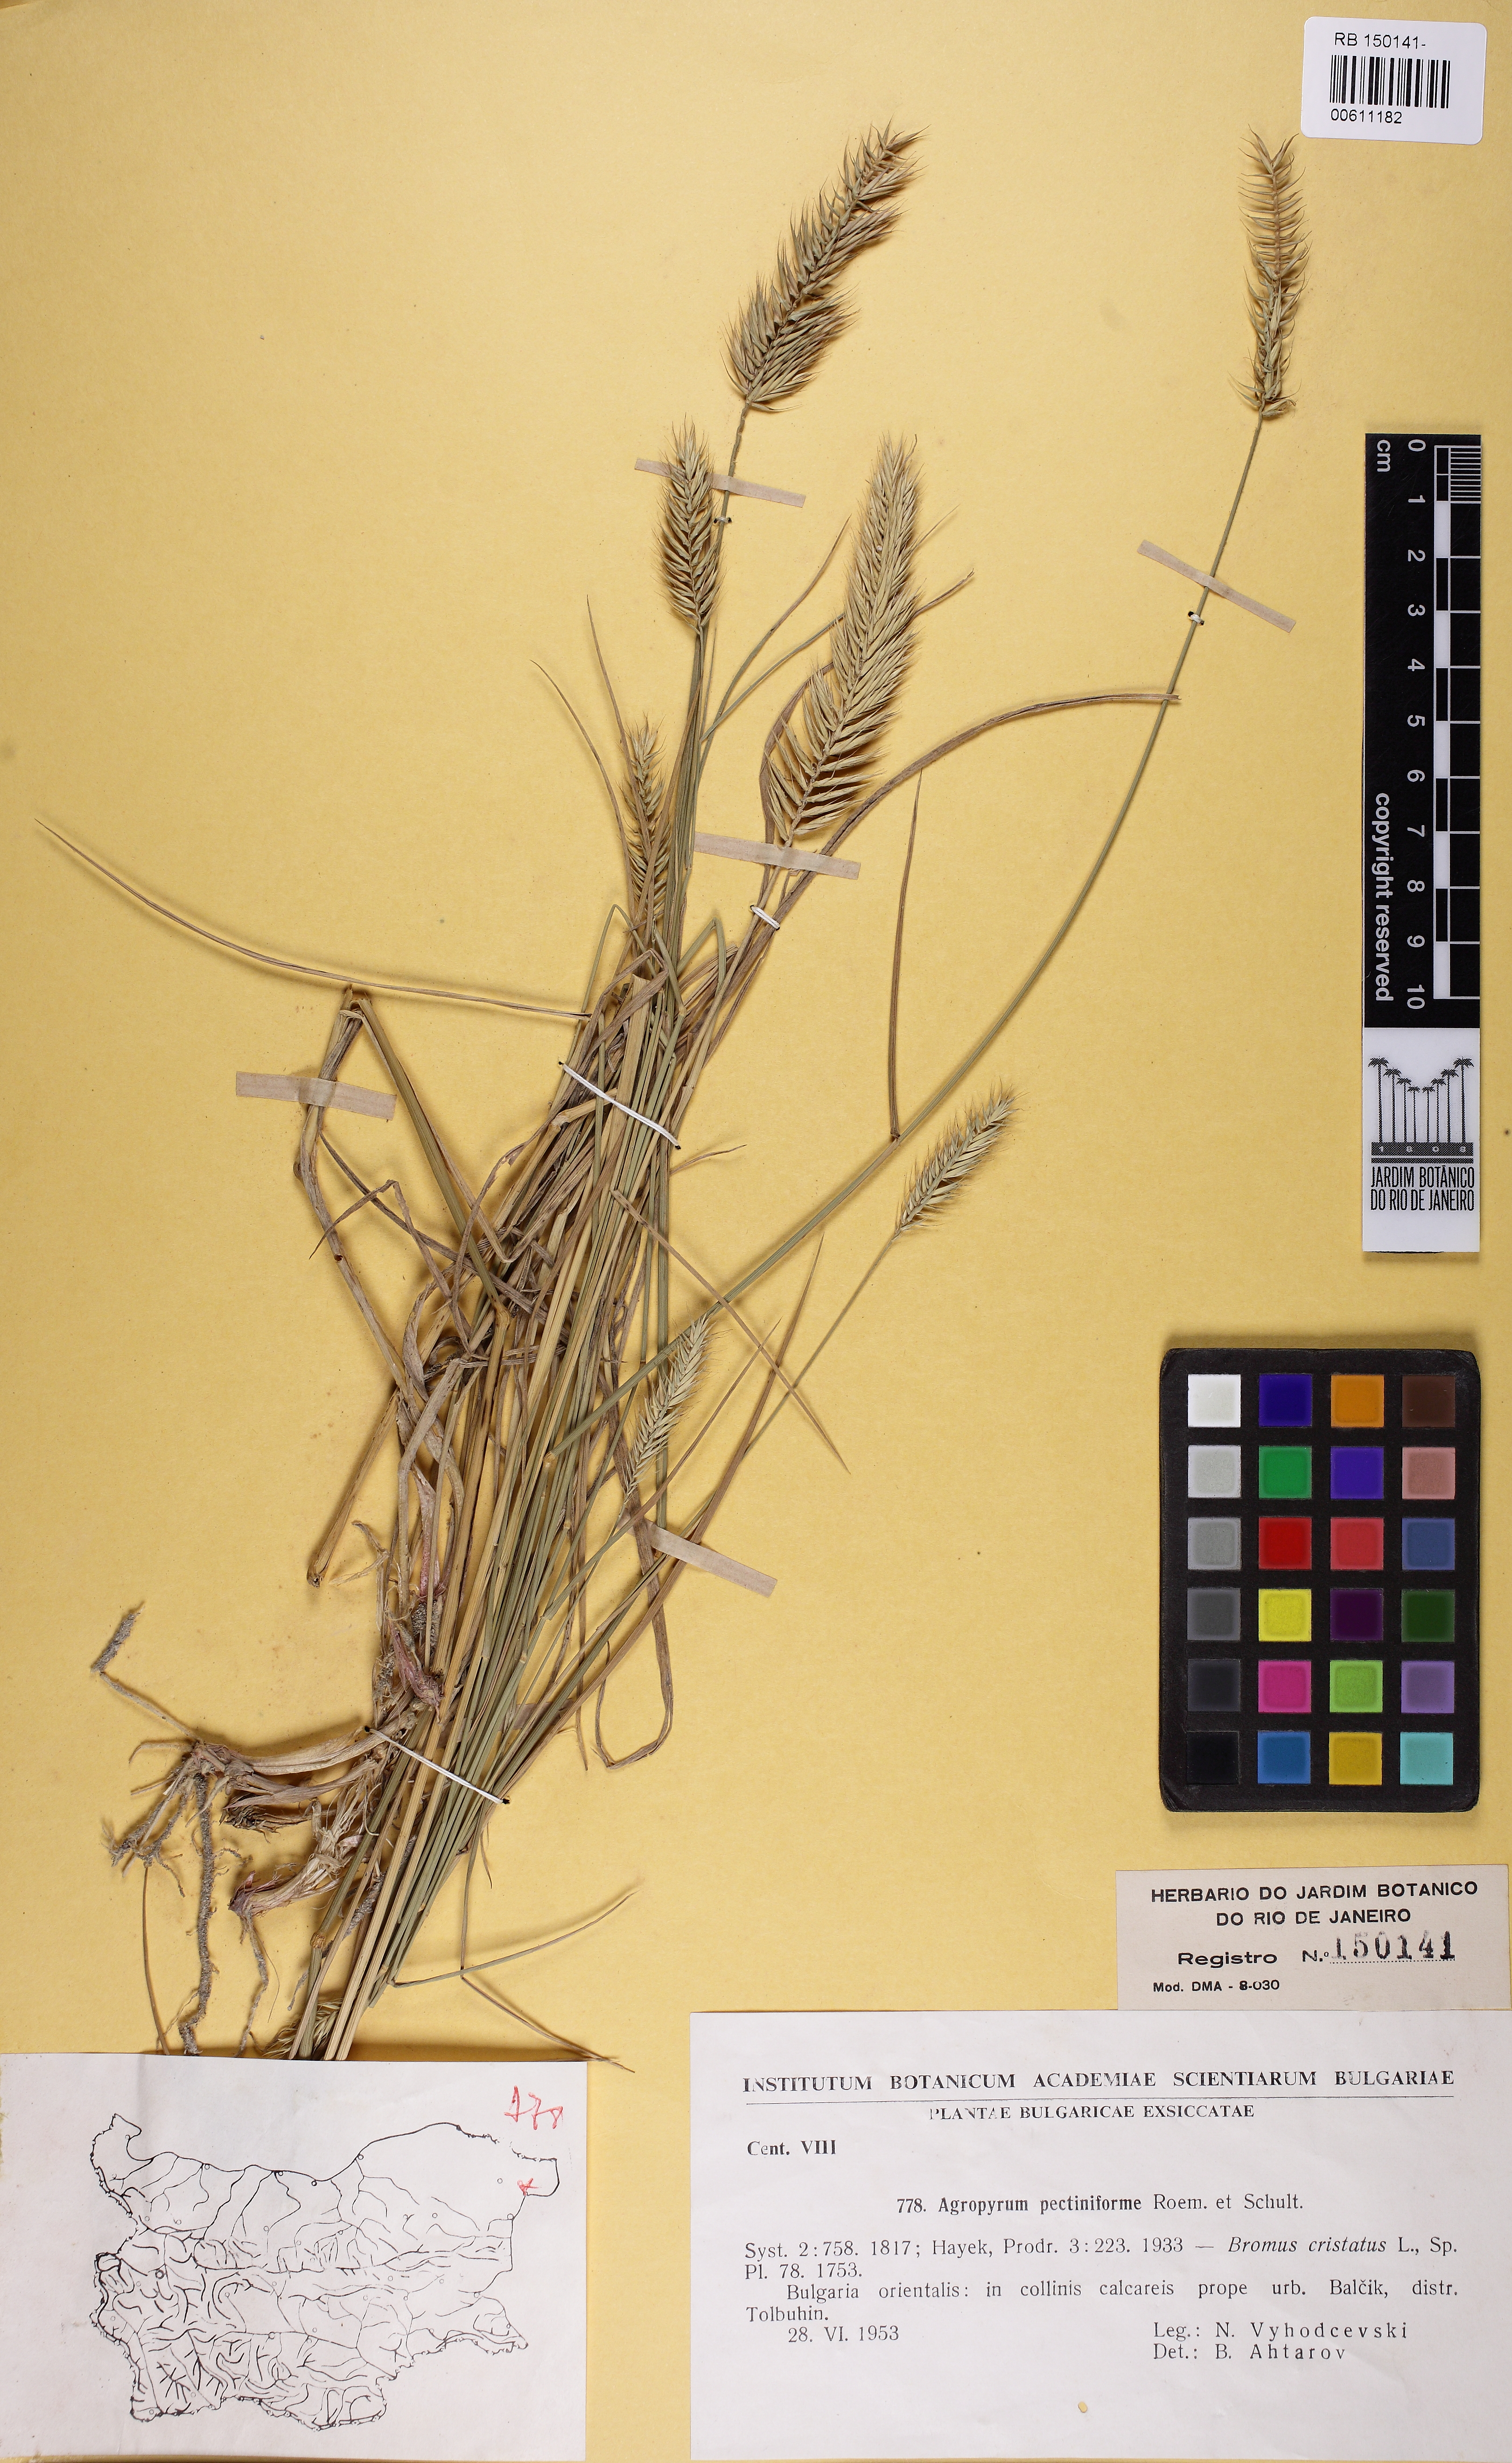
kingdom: Plantae
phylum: Tracheophyta
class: Liliopsida
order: Poales
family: Poaceae
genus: Agropyron
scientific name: Agropyron cristatum
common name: Crested wheatgrass
